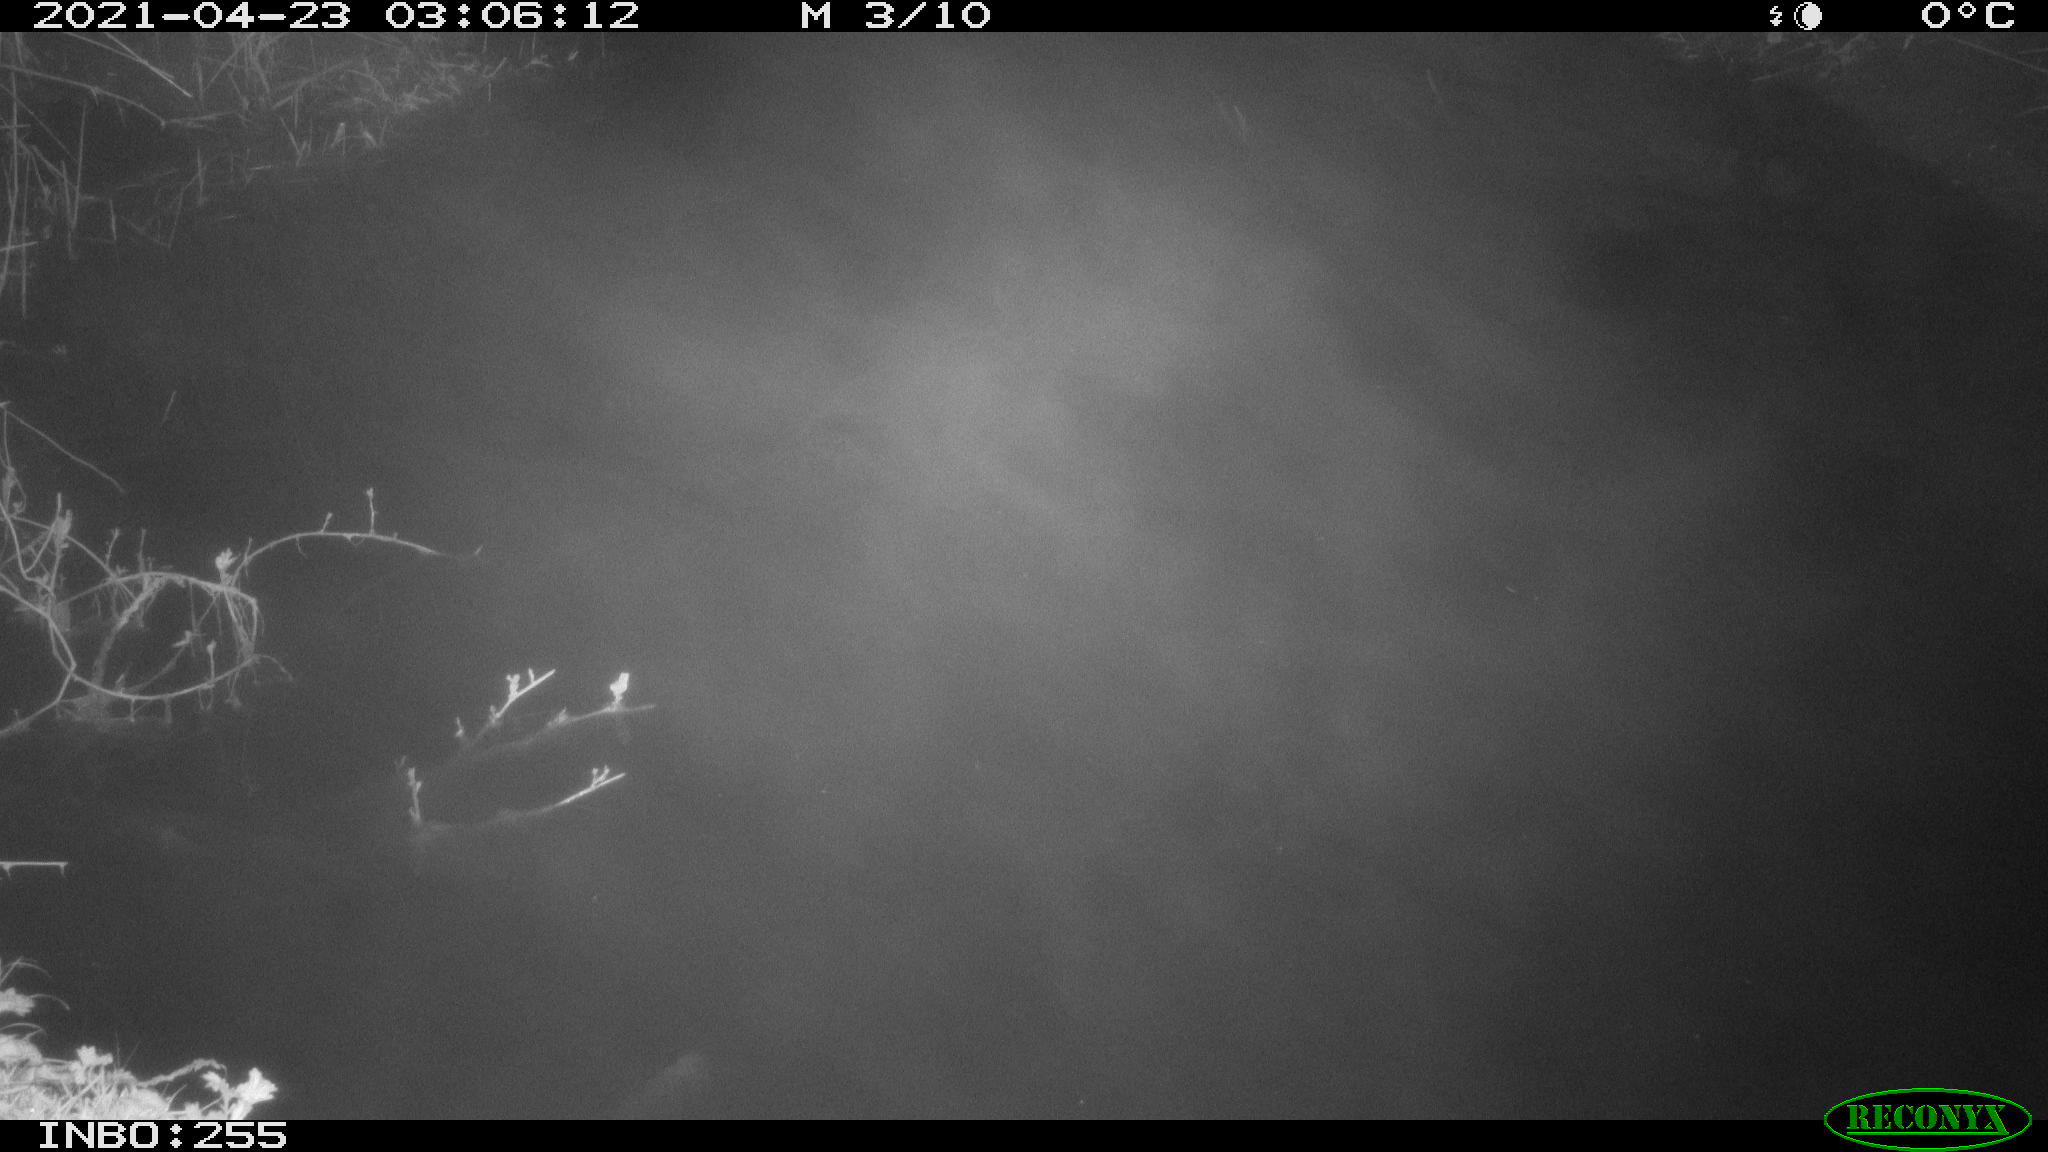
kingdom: Animalia
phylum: Chordata
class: Aves
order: Anseriformes
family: Anatidae
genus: Anas
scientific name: Anas platyrhynchos
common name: Mallard
